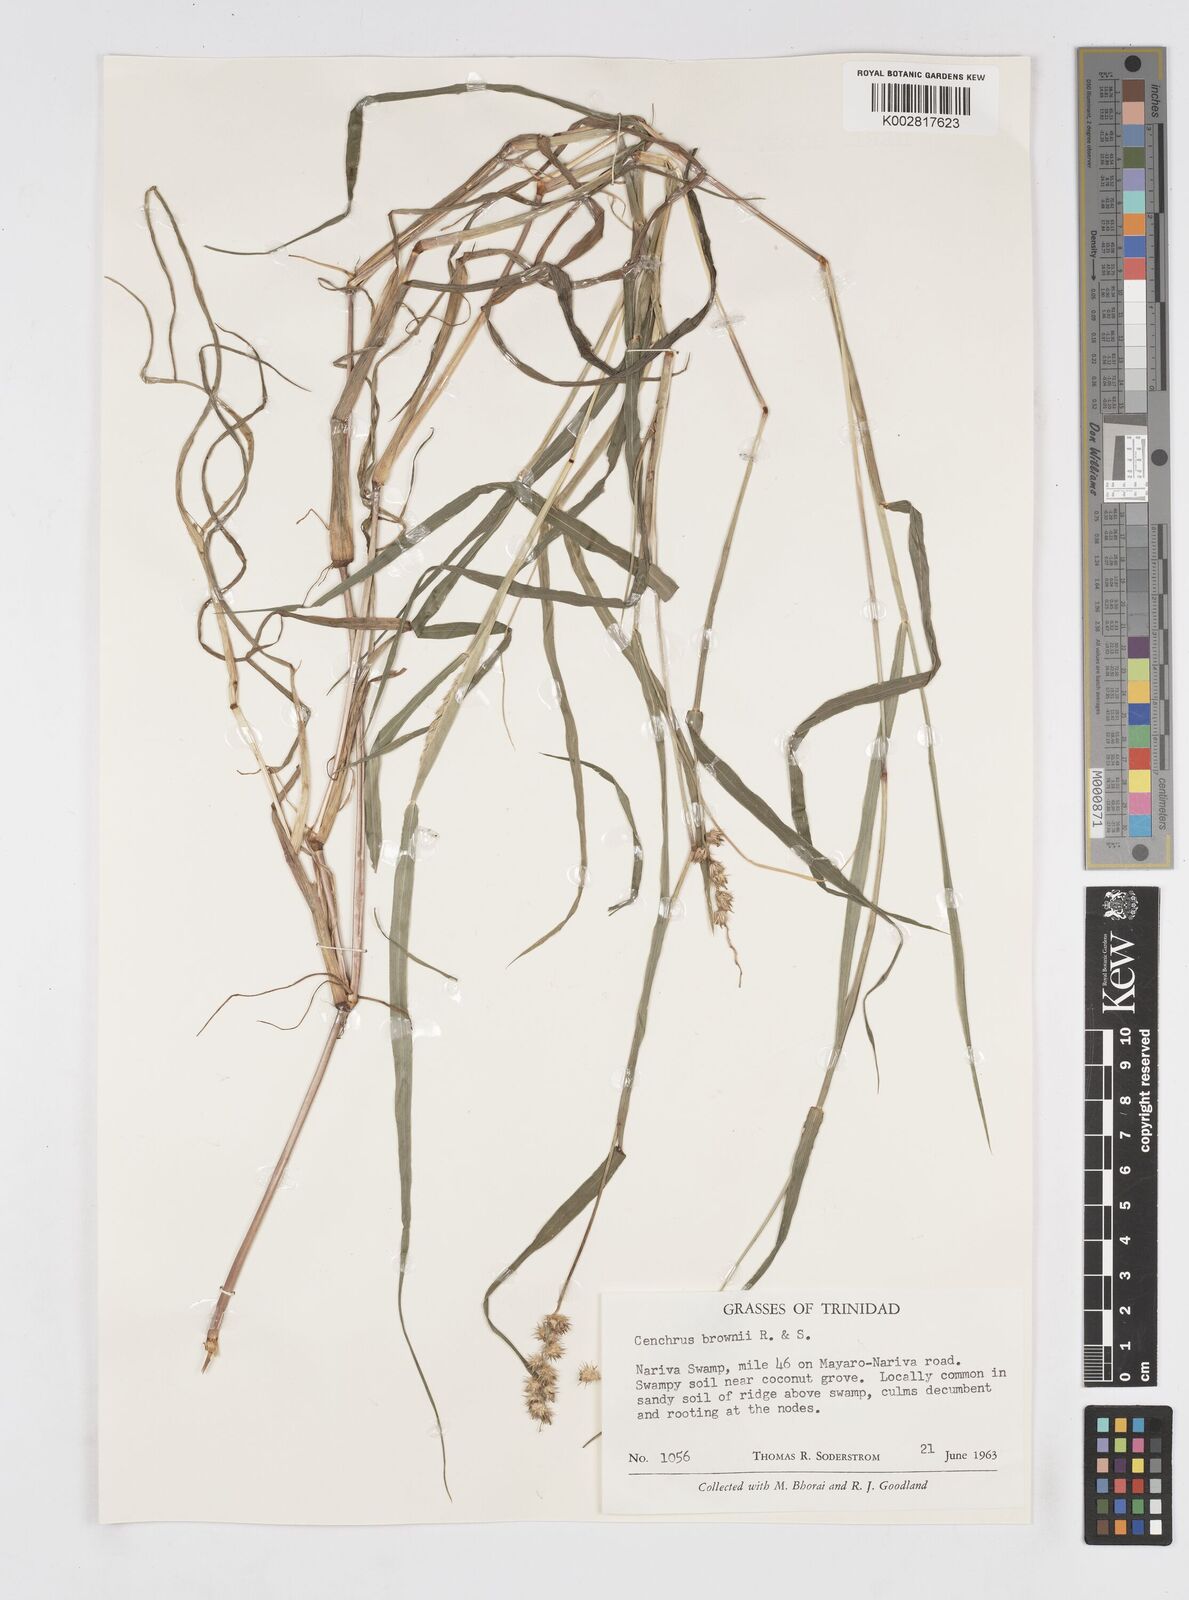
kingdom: Plantae
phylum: Tracheophyta
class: Liliopsida
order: Poales
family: Poaceae
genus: Cenchrus
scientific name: Cenchrus brownii
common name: Slim-bristle sandbur
